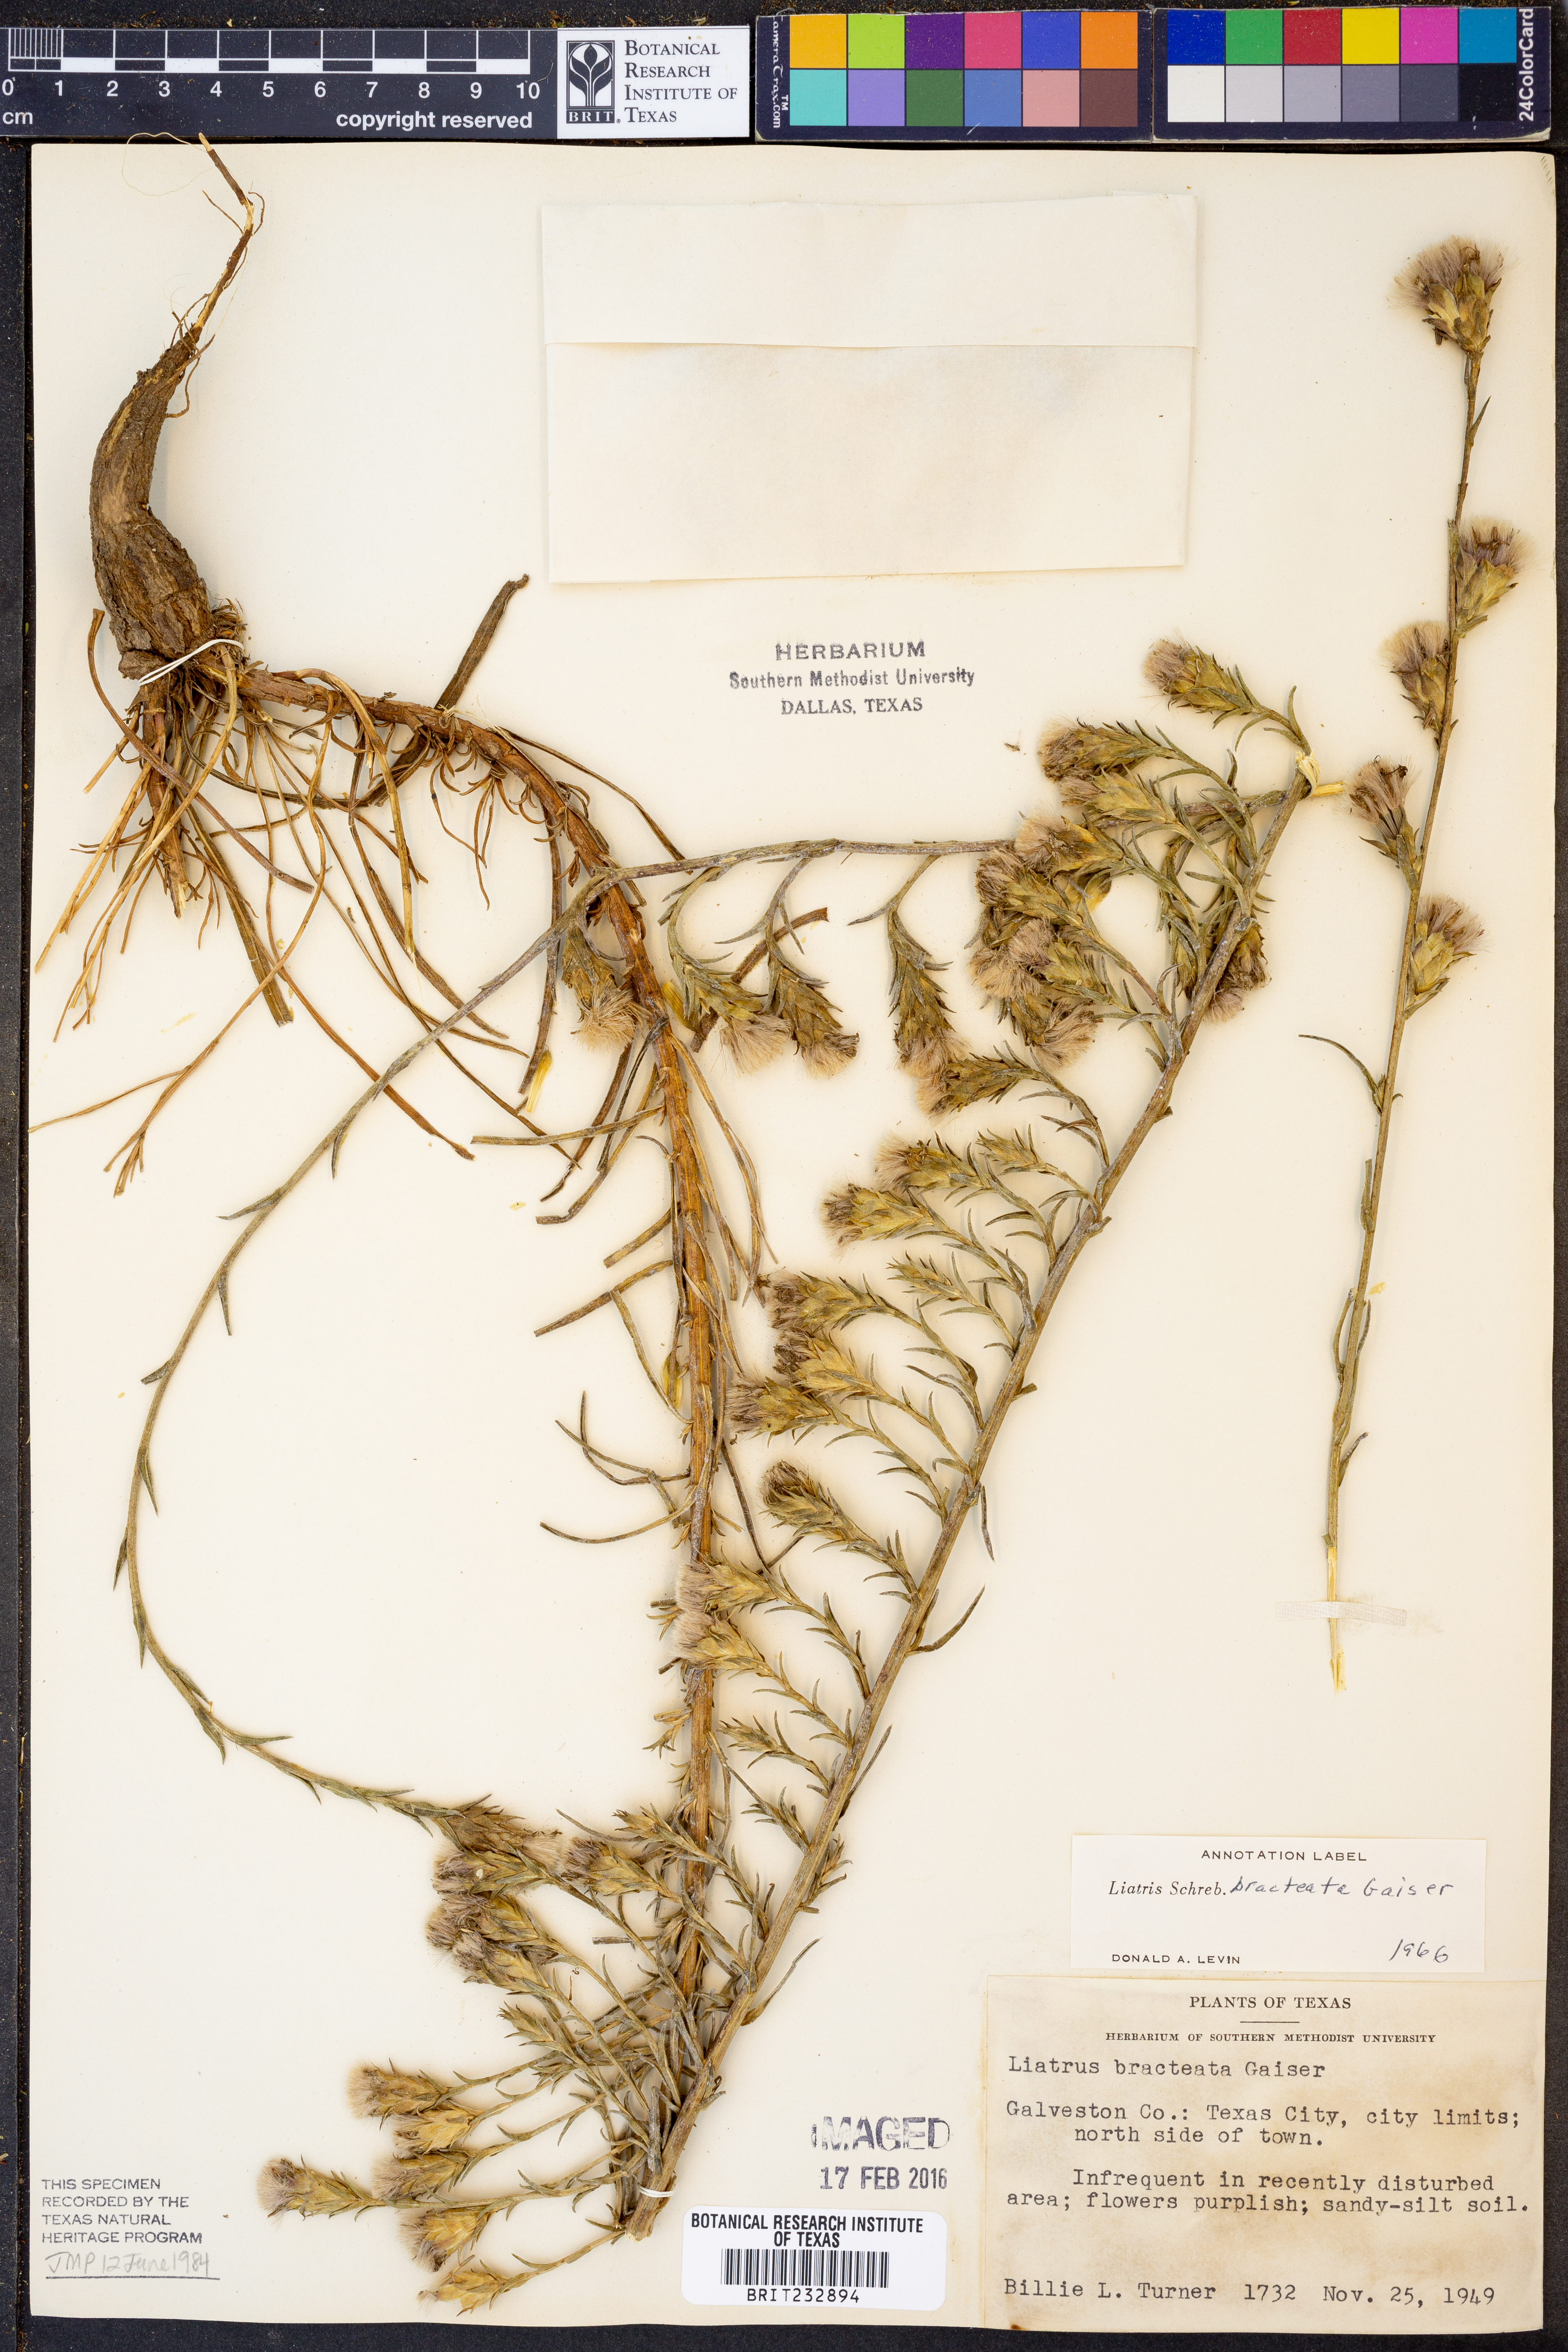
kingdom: Plantae
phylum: Tracheophyta
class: Magnoliopsida
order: Asterales
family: Asteraceae
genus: Liatris
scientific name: Liatris bracteata
